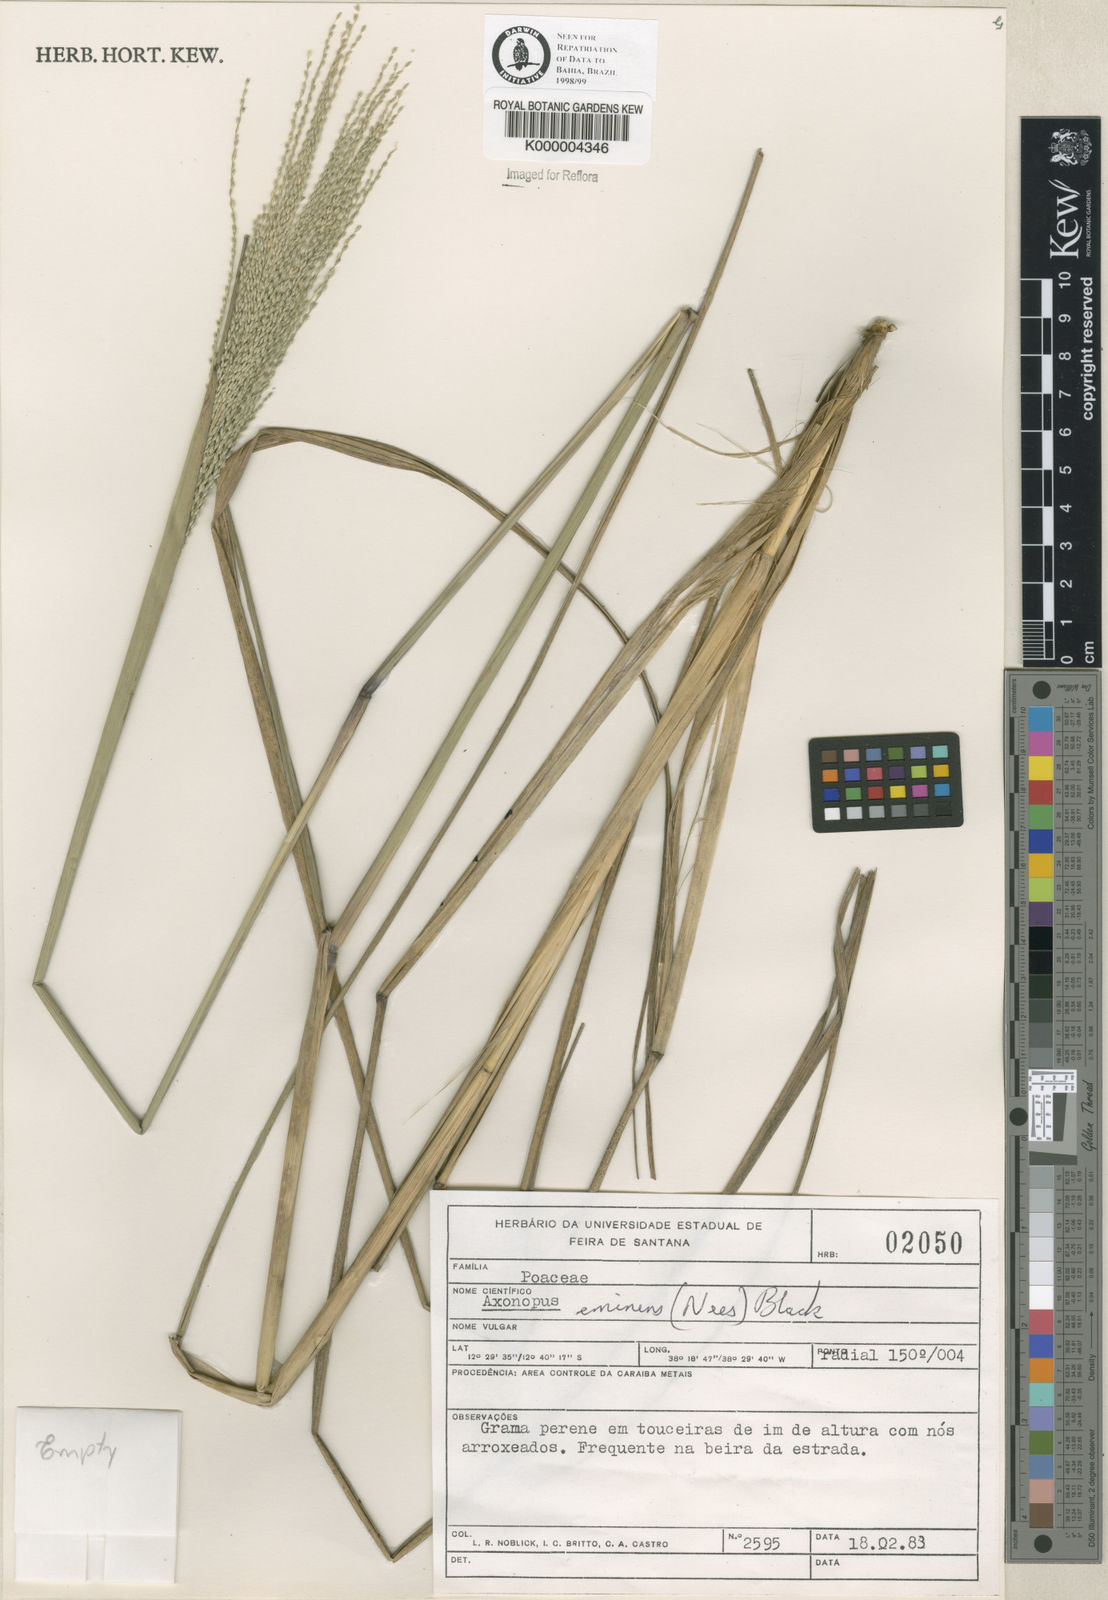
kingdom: Plantae
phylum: Tracheophyta
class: Liliopsida
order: Poales
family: Poaceae
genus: Axonopus
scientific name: Axonopus eminens
